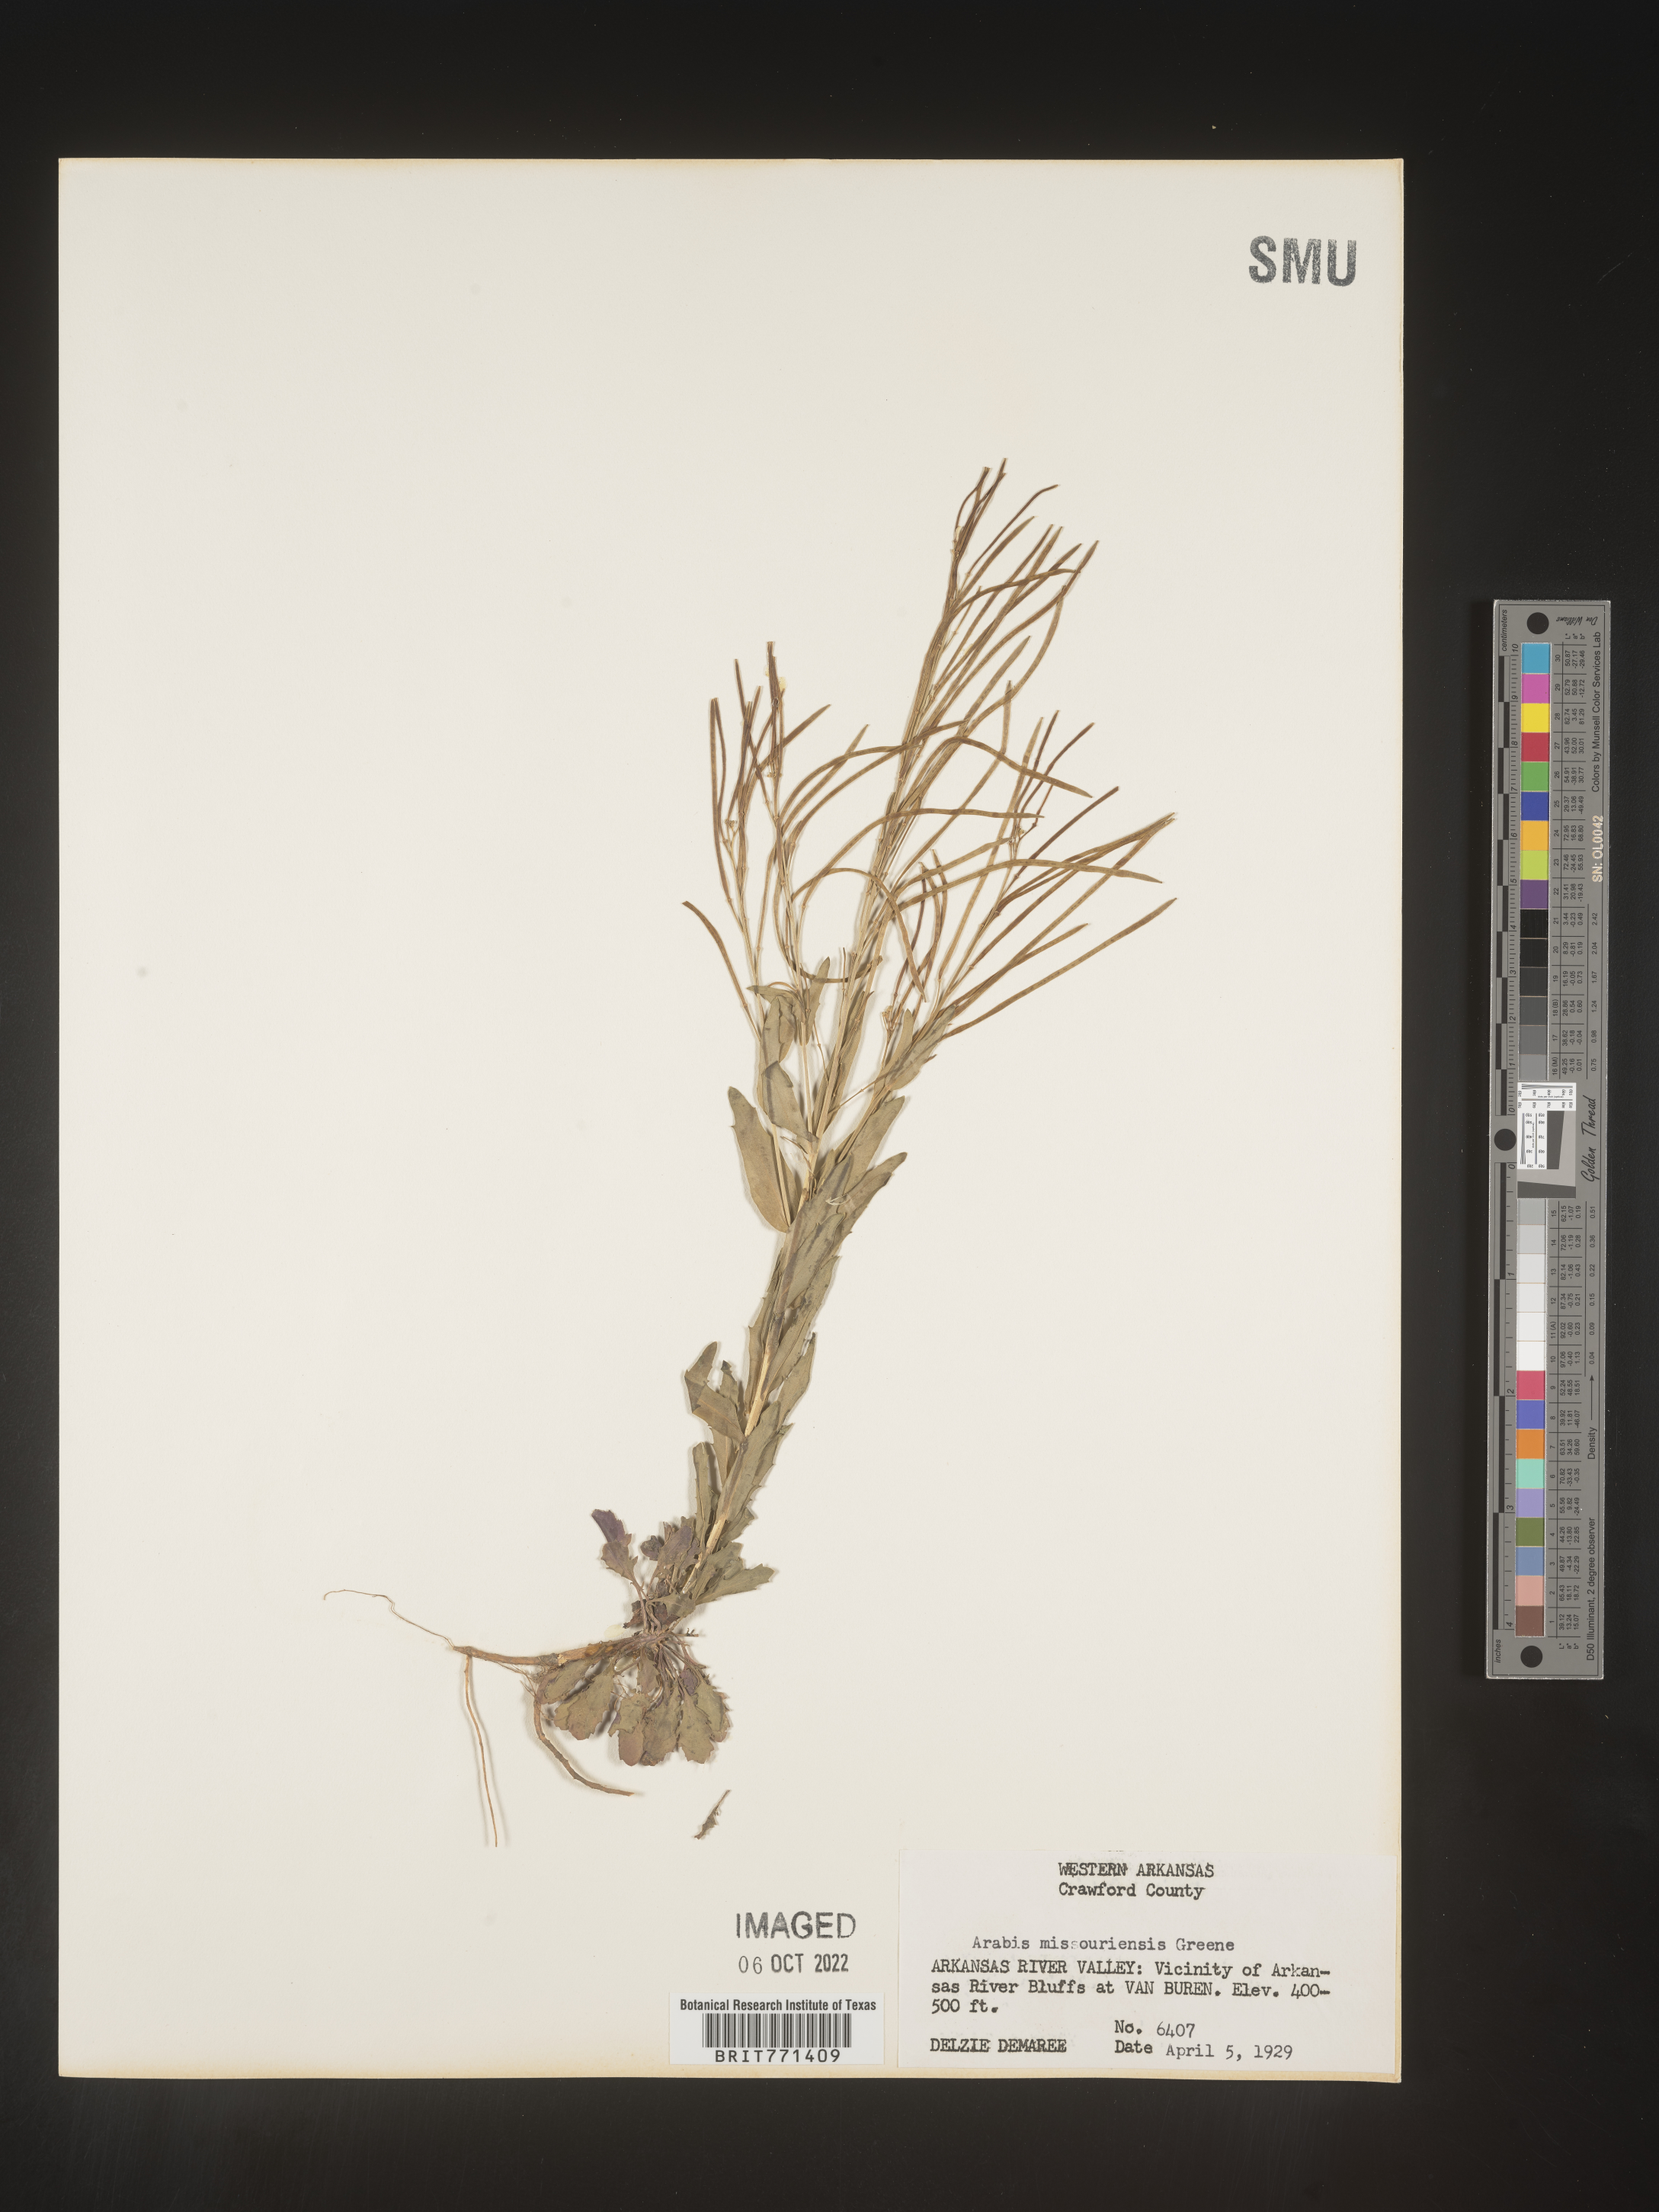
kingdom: Plantae
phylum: Tracheophyta
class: Magnoliopsida
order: Brassicales
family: Brassicaceae
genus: Arabis
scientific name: Arabis
